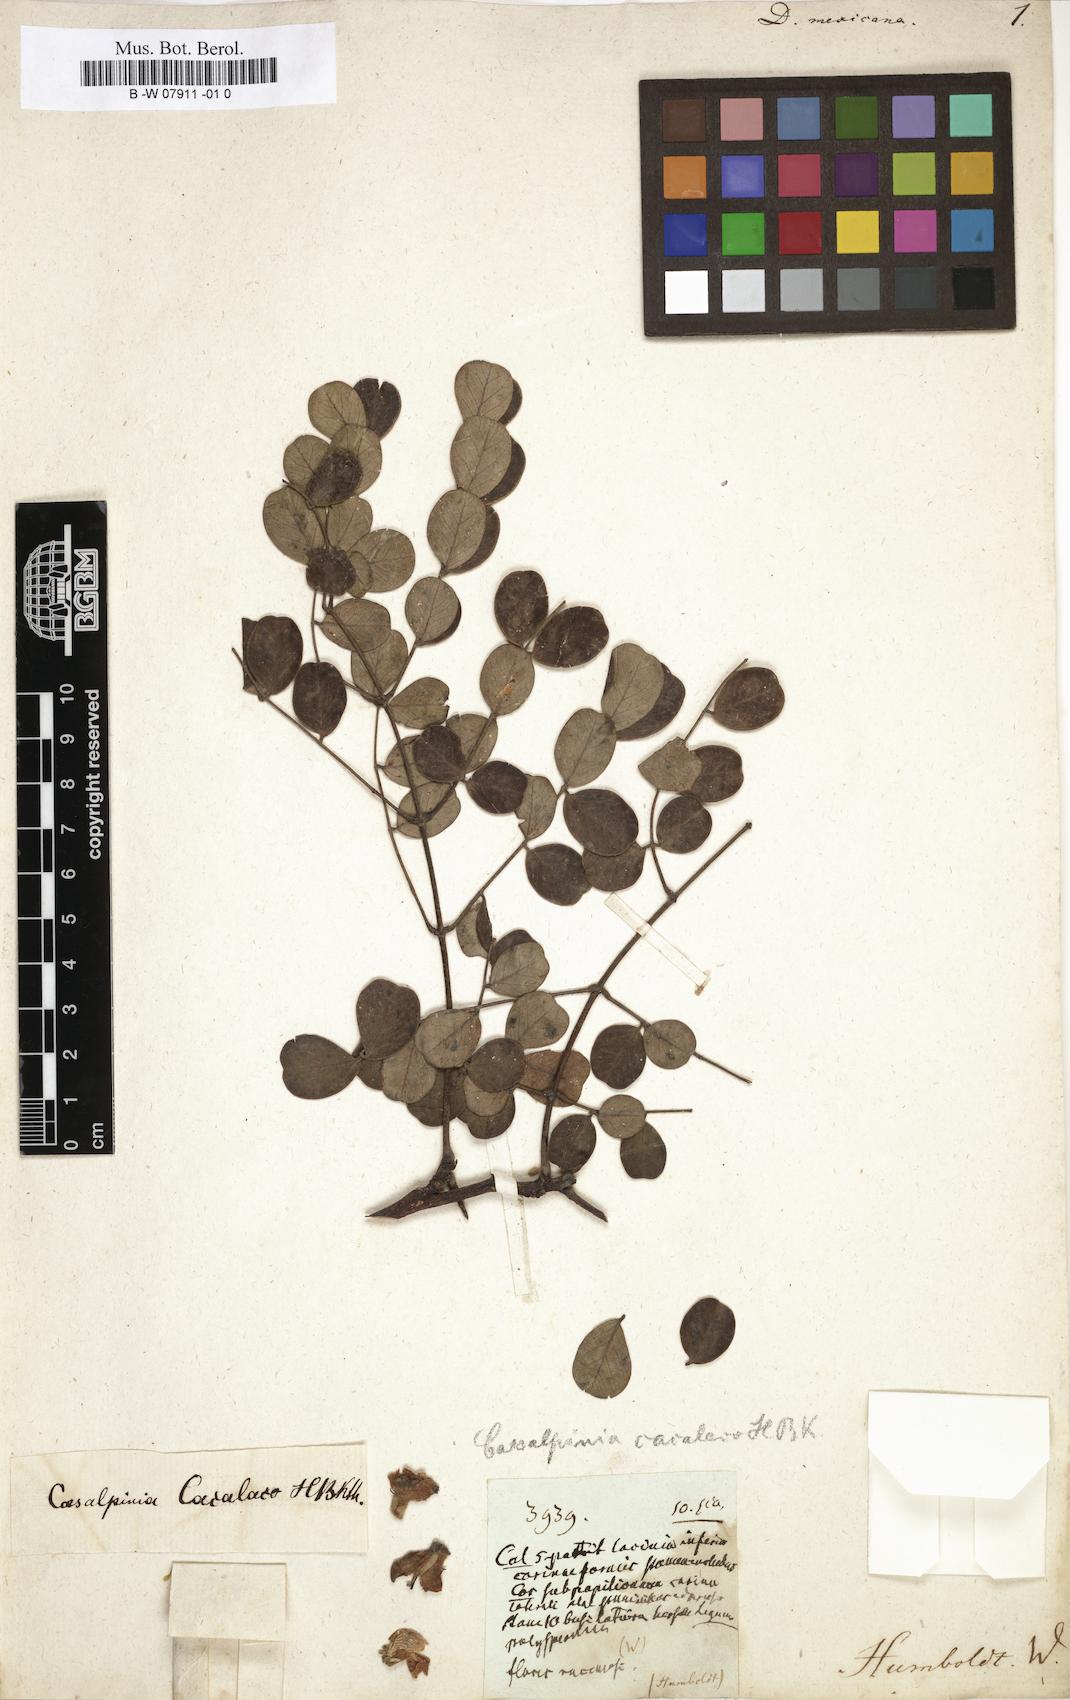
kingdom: Plantae
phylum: Tracheophyta
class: Magnoliopsida
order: Fabales
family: Fabaceae
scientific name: Fabaceae
